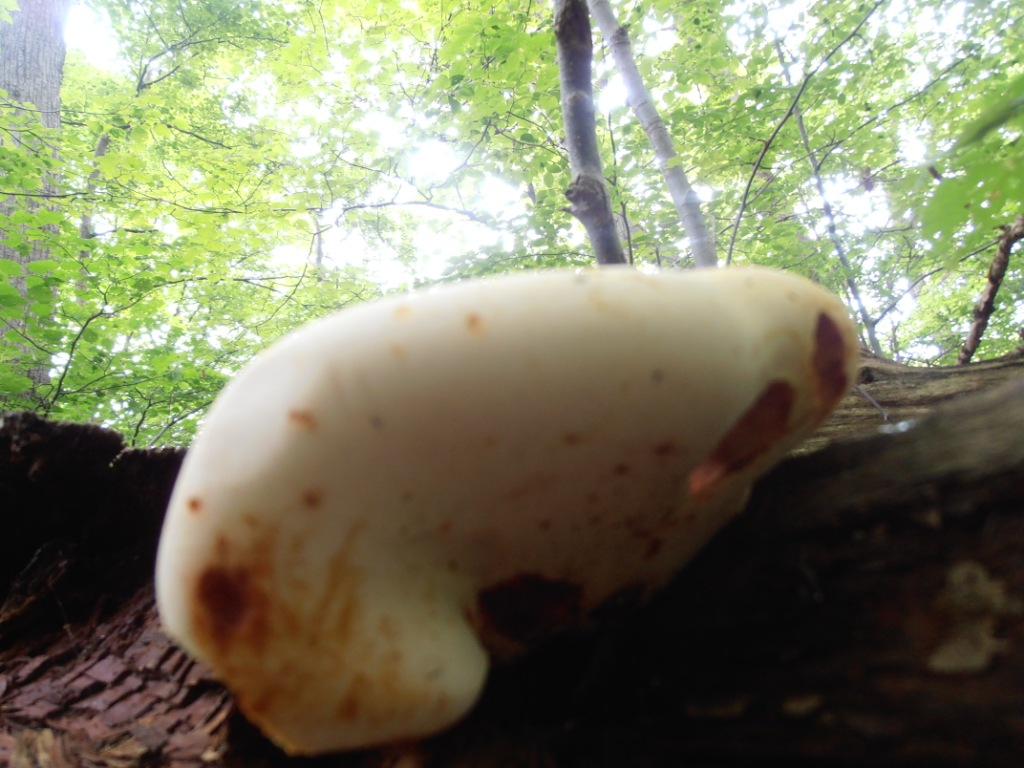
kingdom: Fungi
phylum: Basidiomycota
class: Agaricomycetes
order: Polyporales
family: Fomitopsidaceae
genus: Buglossoporus
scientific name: Buglossoporus quercinus
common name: egetunge
